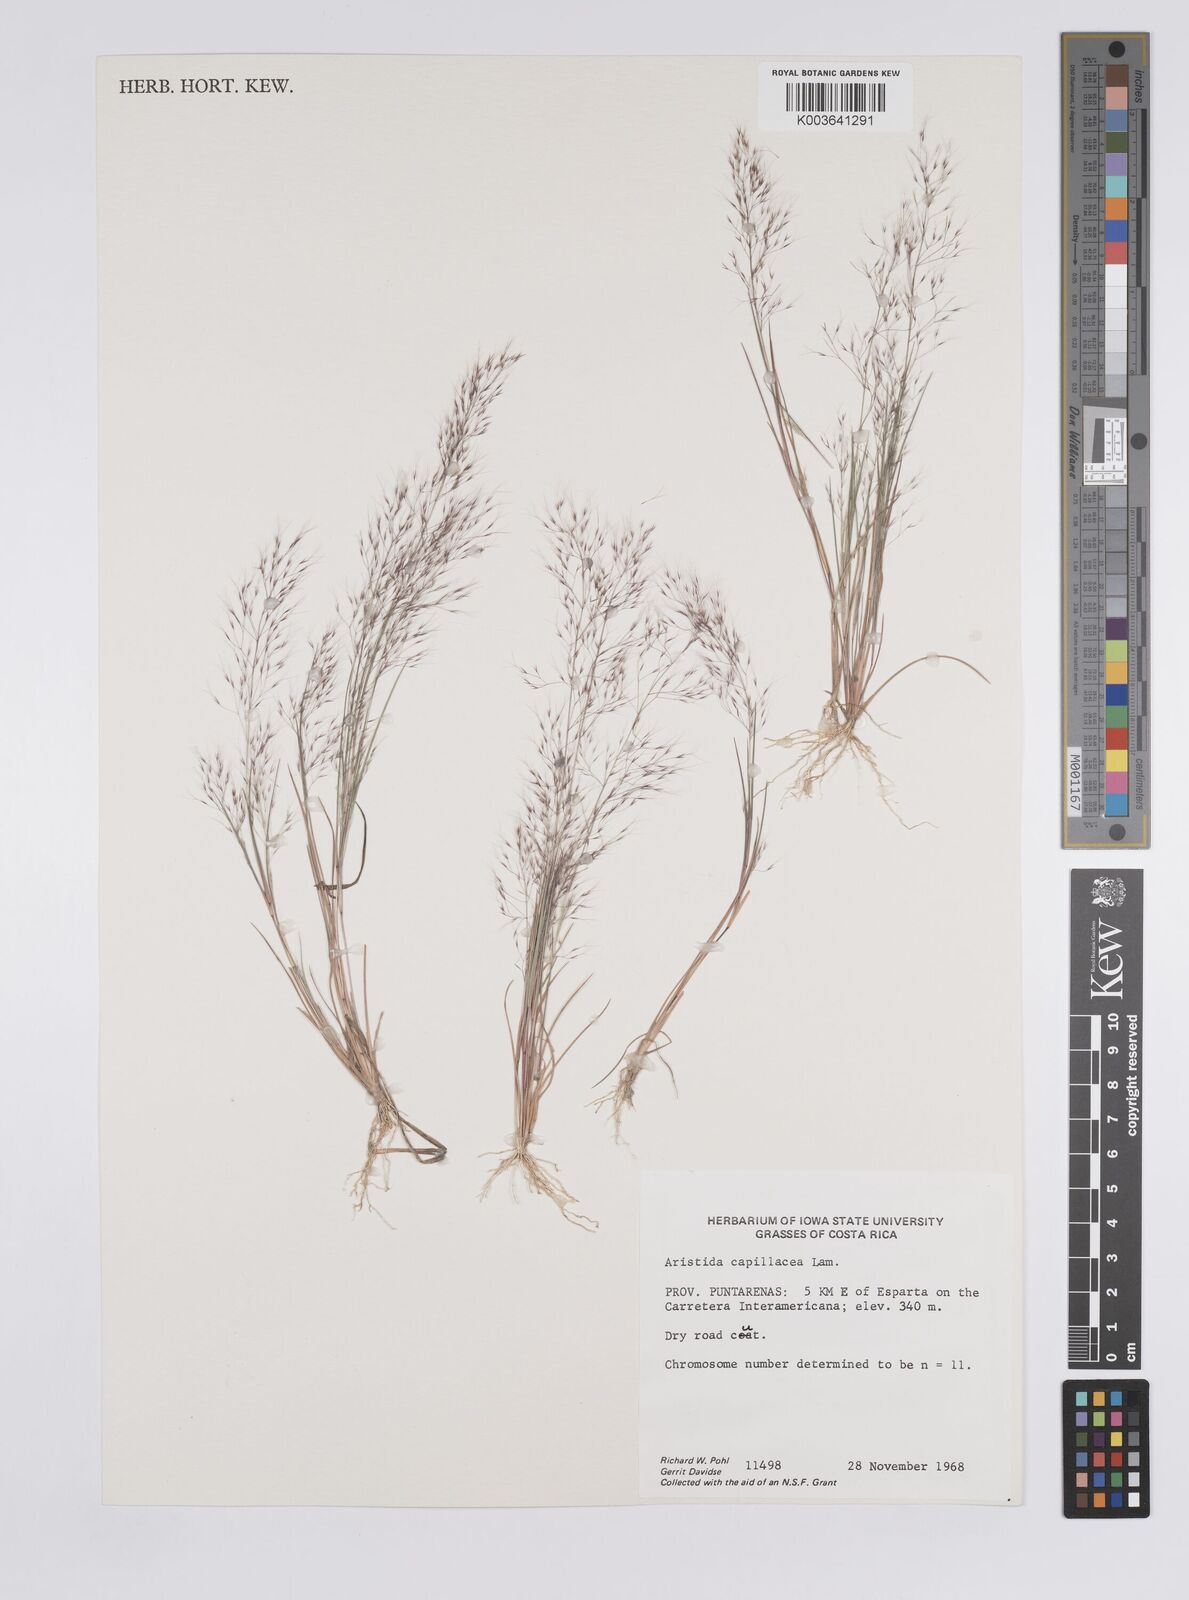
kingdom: Plantae
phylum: Tracheophyta
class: Liliopsida
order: Poales
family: Poaceae
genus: Aristida
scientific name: Aristida
